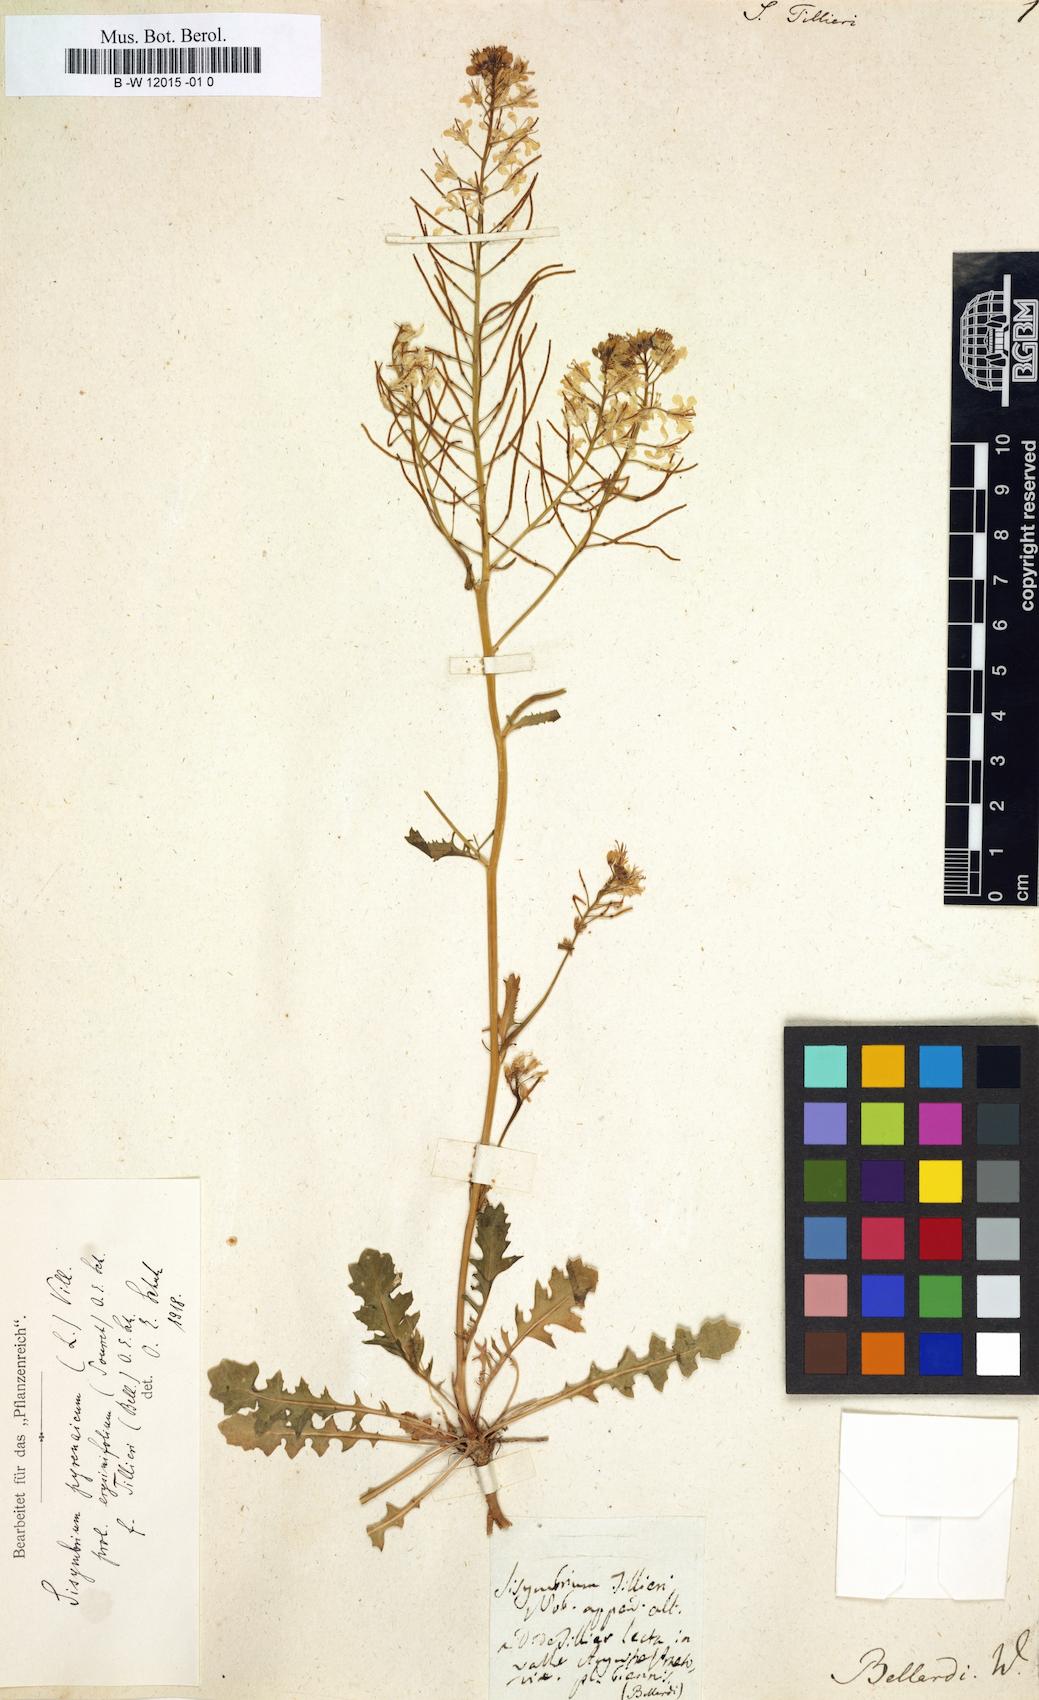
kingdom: Plantae
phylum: Tracheophyta
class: Magnoliopsida
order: Brassicales
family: Brassicaceae
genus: Sisymbrium
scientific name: Sisymbrium austriacum
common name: Jeweled rocket
